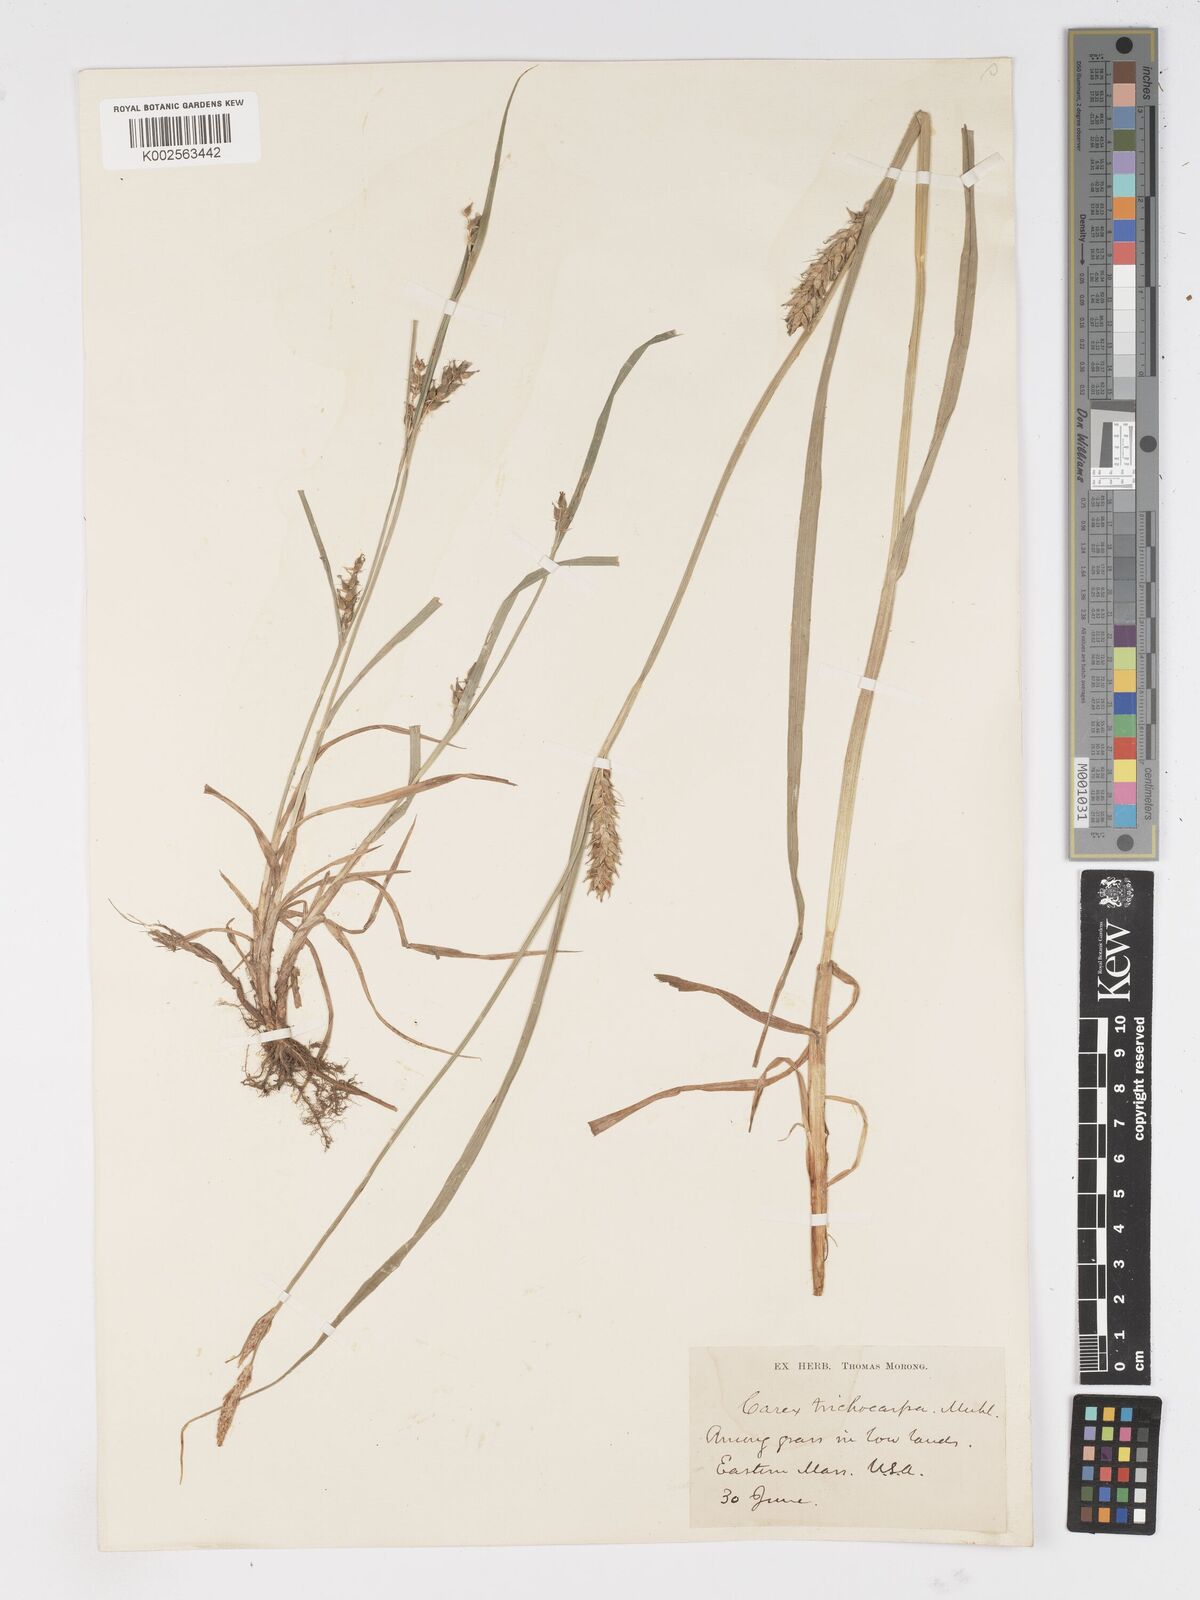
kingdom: Plantae
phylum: Tracheophyta
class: Liliopsida
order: Poales
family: Cyperaceae
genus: Carex
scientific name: Carex trichocarpa
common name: Hairy-fruited lake sedge
